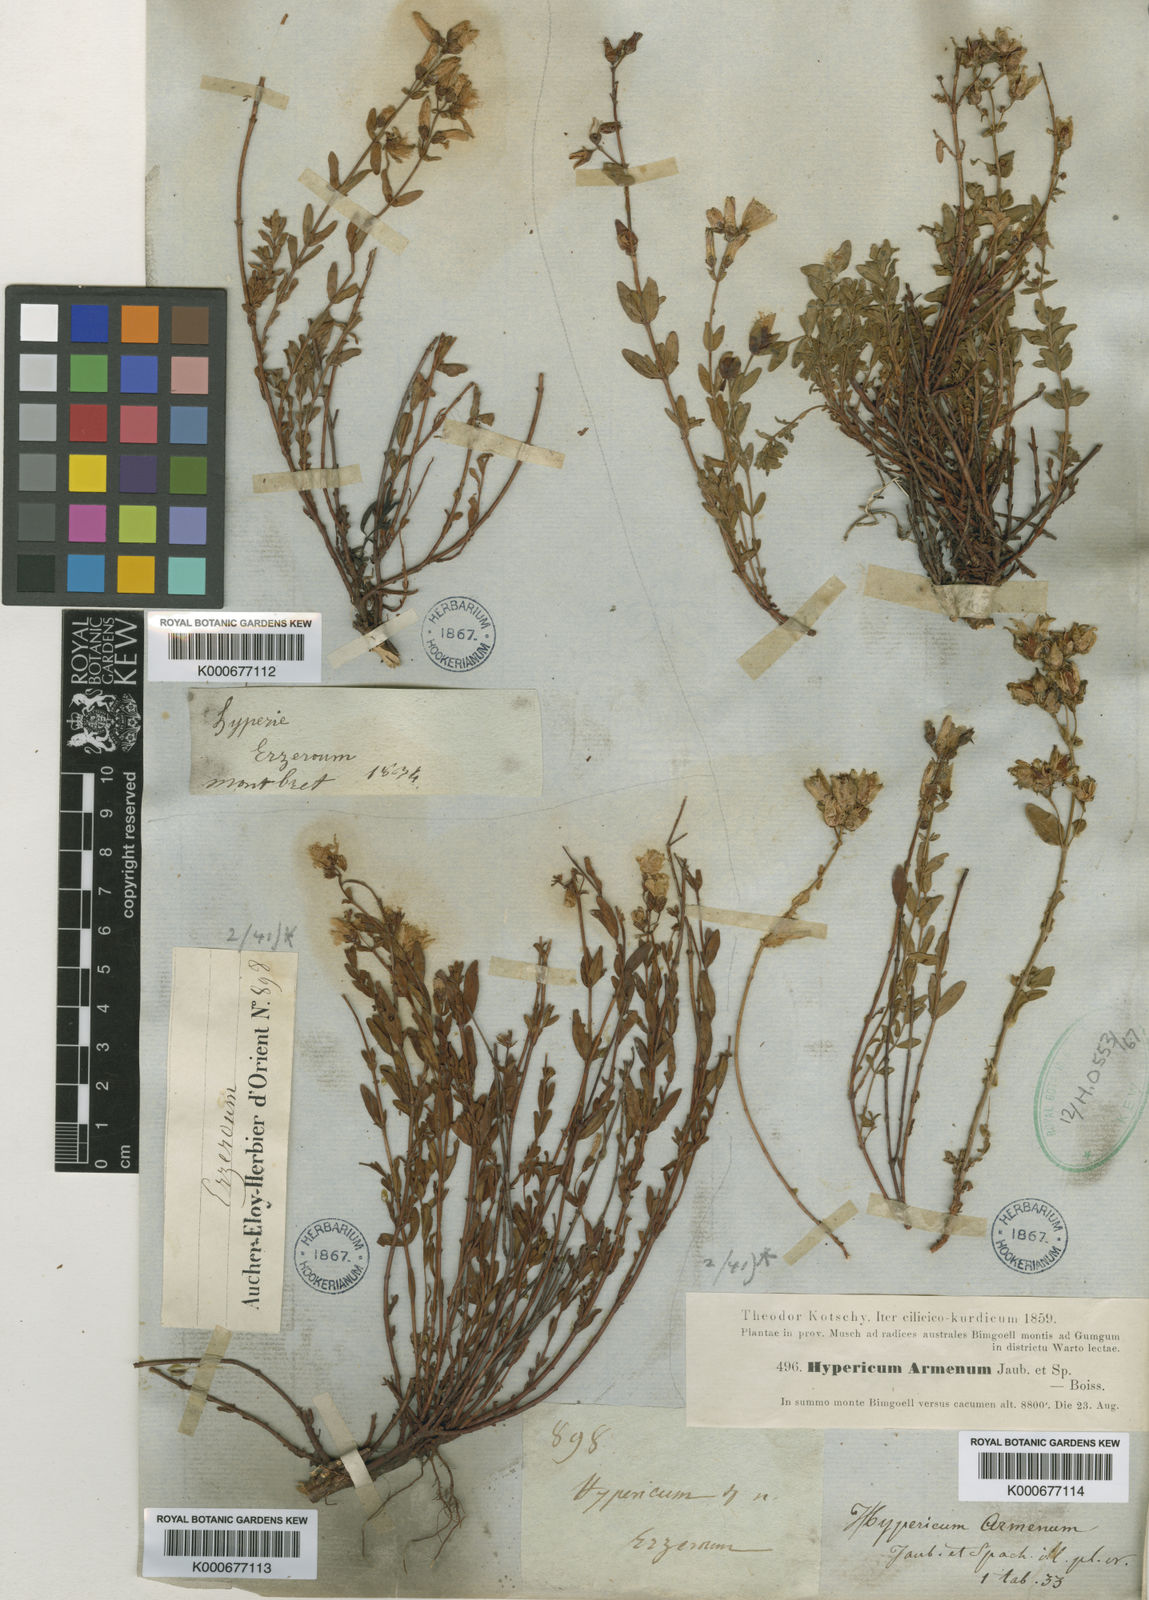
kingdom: Plantae
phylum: Tracheophyta
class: Magnoliopsida
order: Malpighiales
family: Hypericaceae
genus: Hypericum
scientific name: Hypericum armenum
